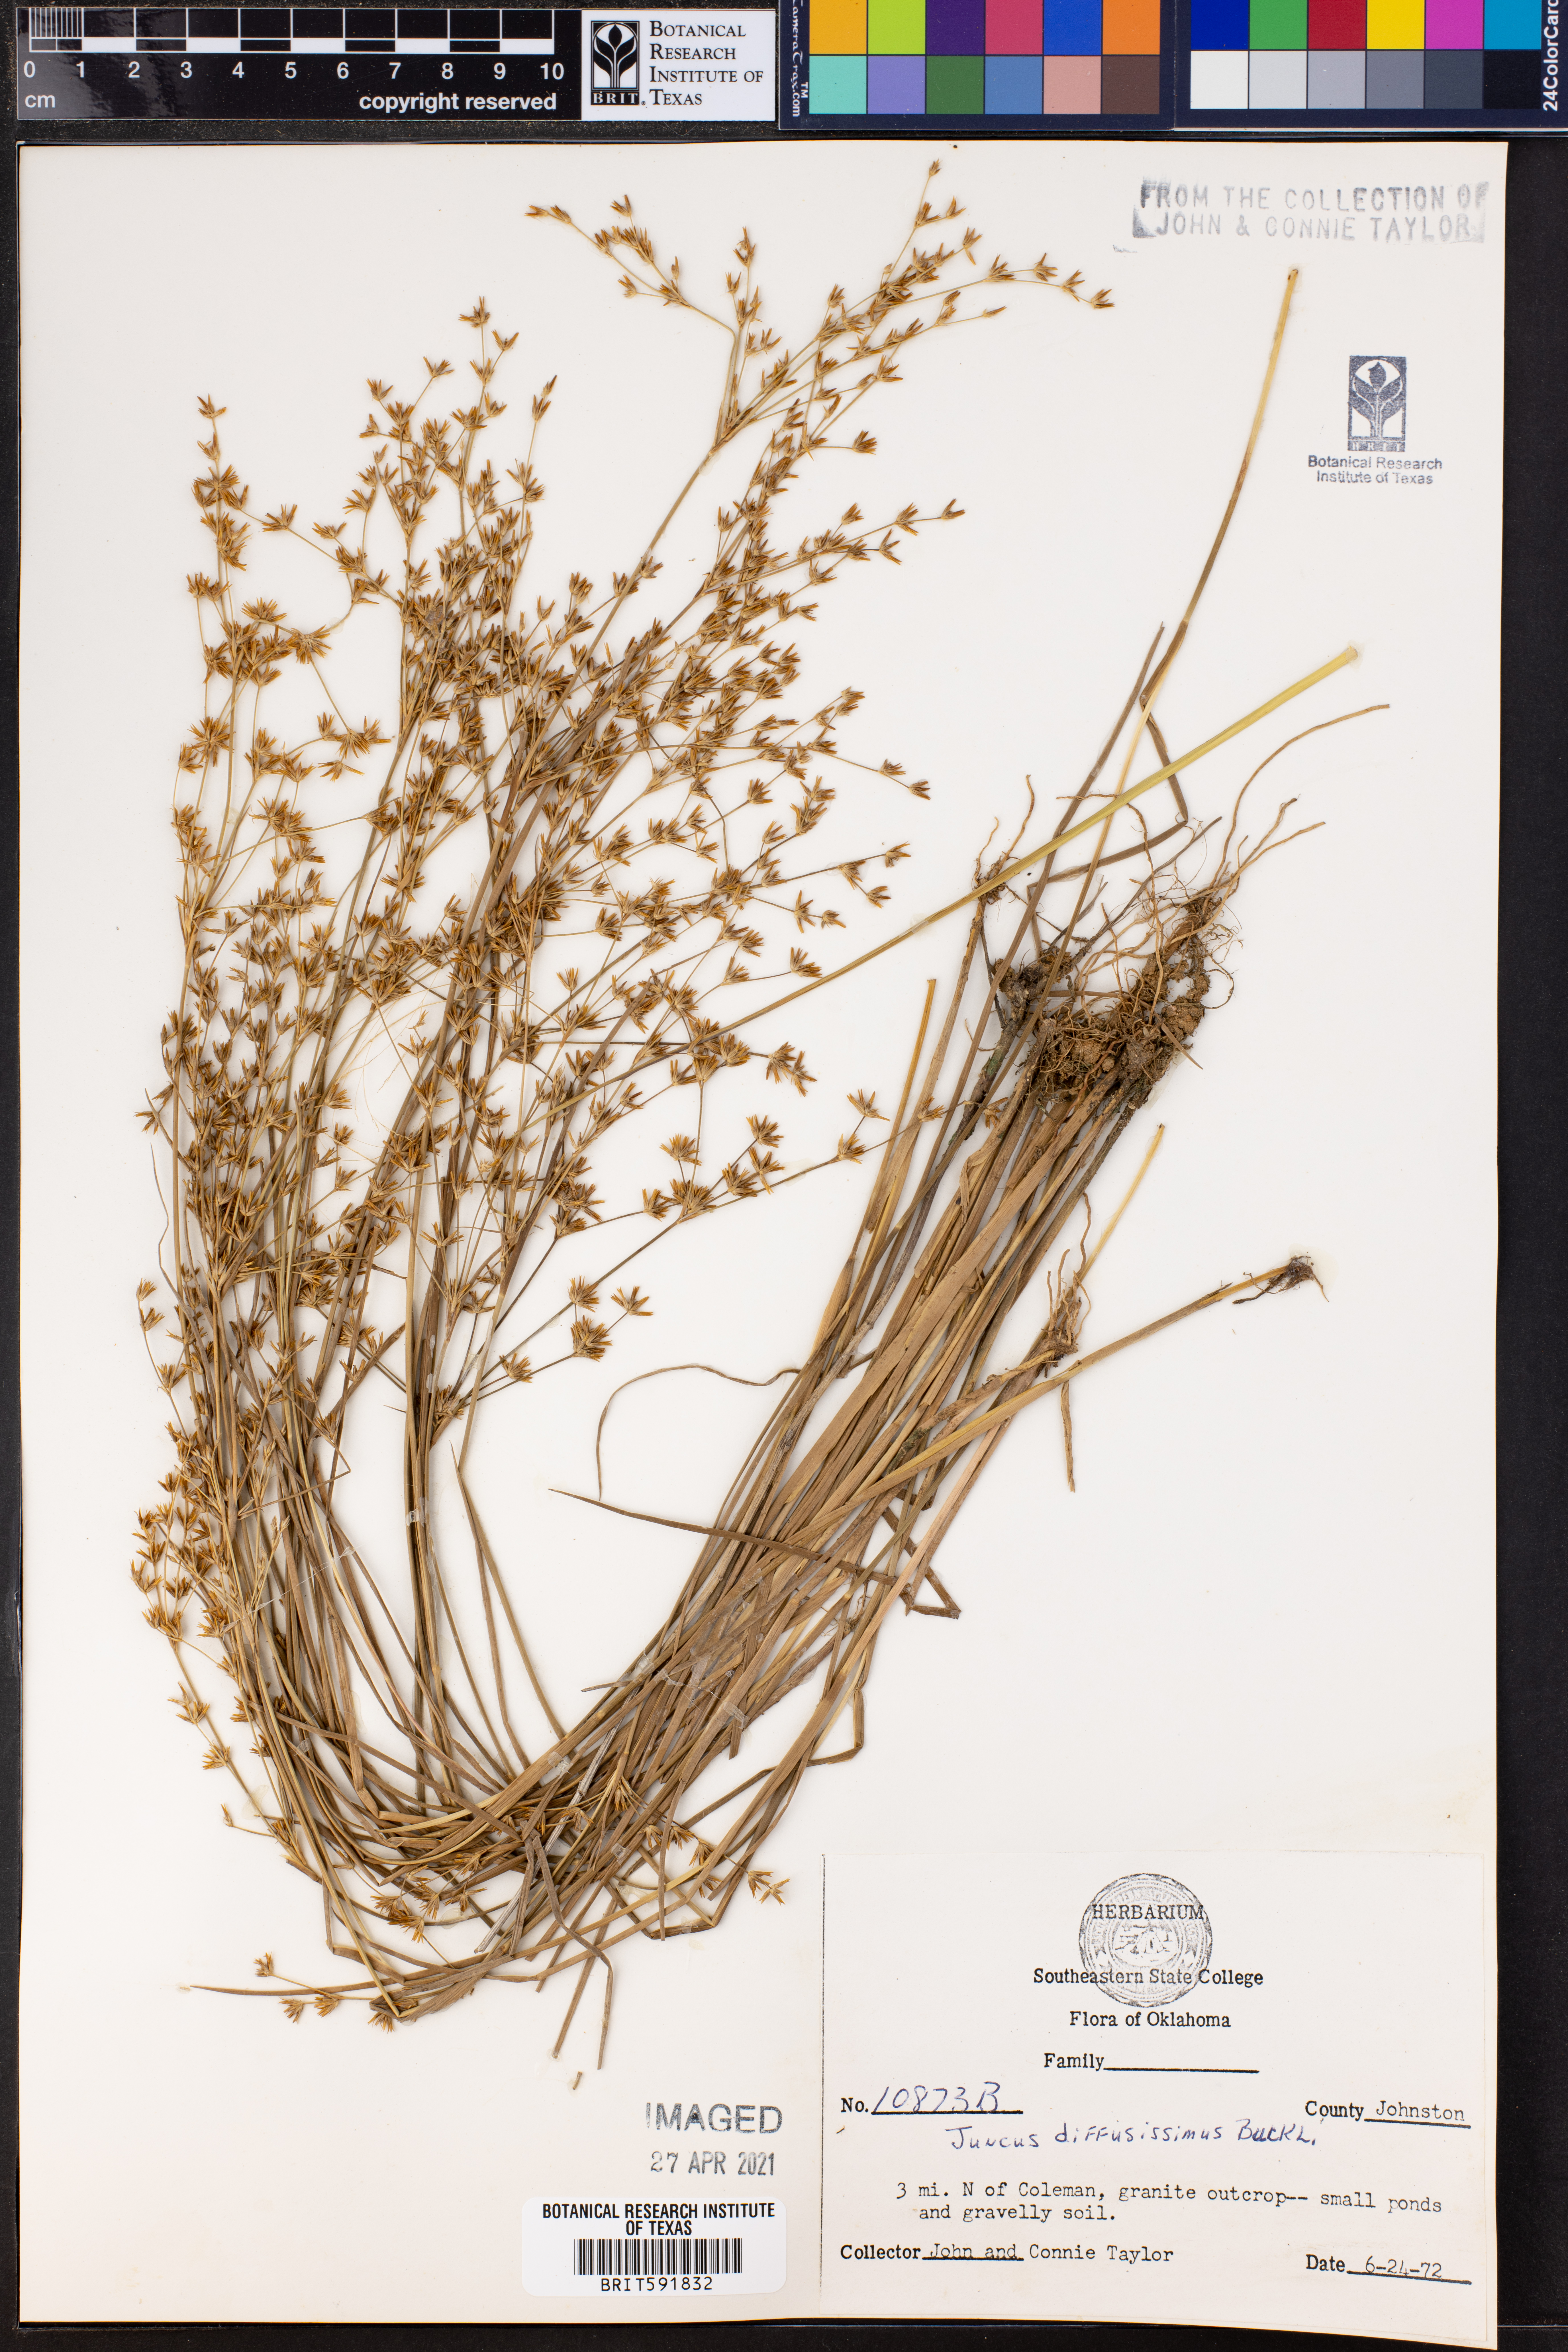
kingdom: Plantae
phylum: Tracheophyta
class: Liliopsida
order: Poales
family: Juncaceae
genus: Juncus
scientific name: Juncus diffusissimus
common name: Slimpod rush
